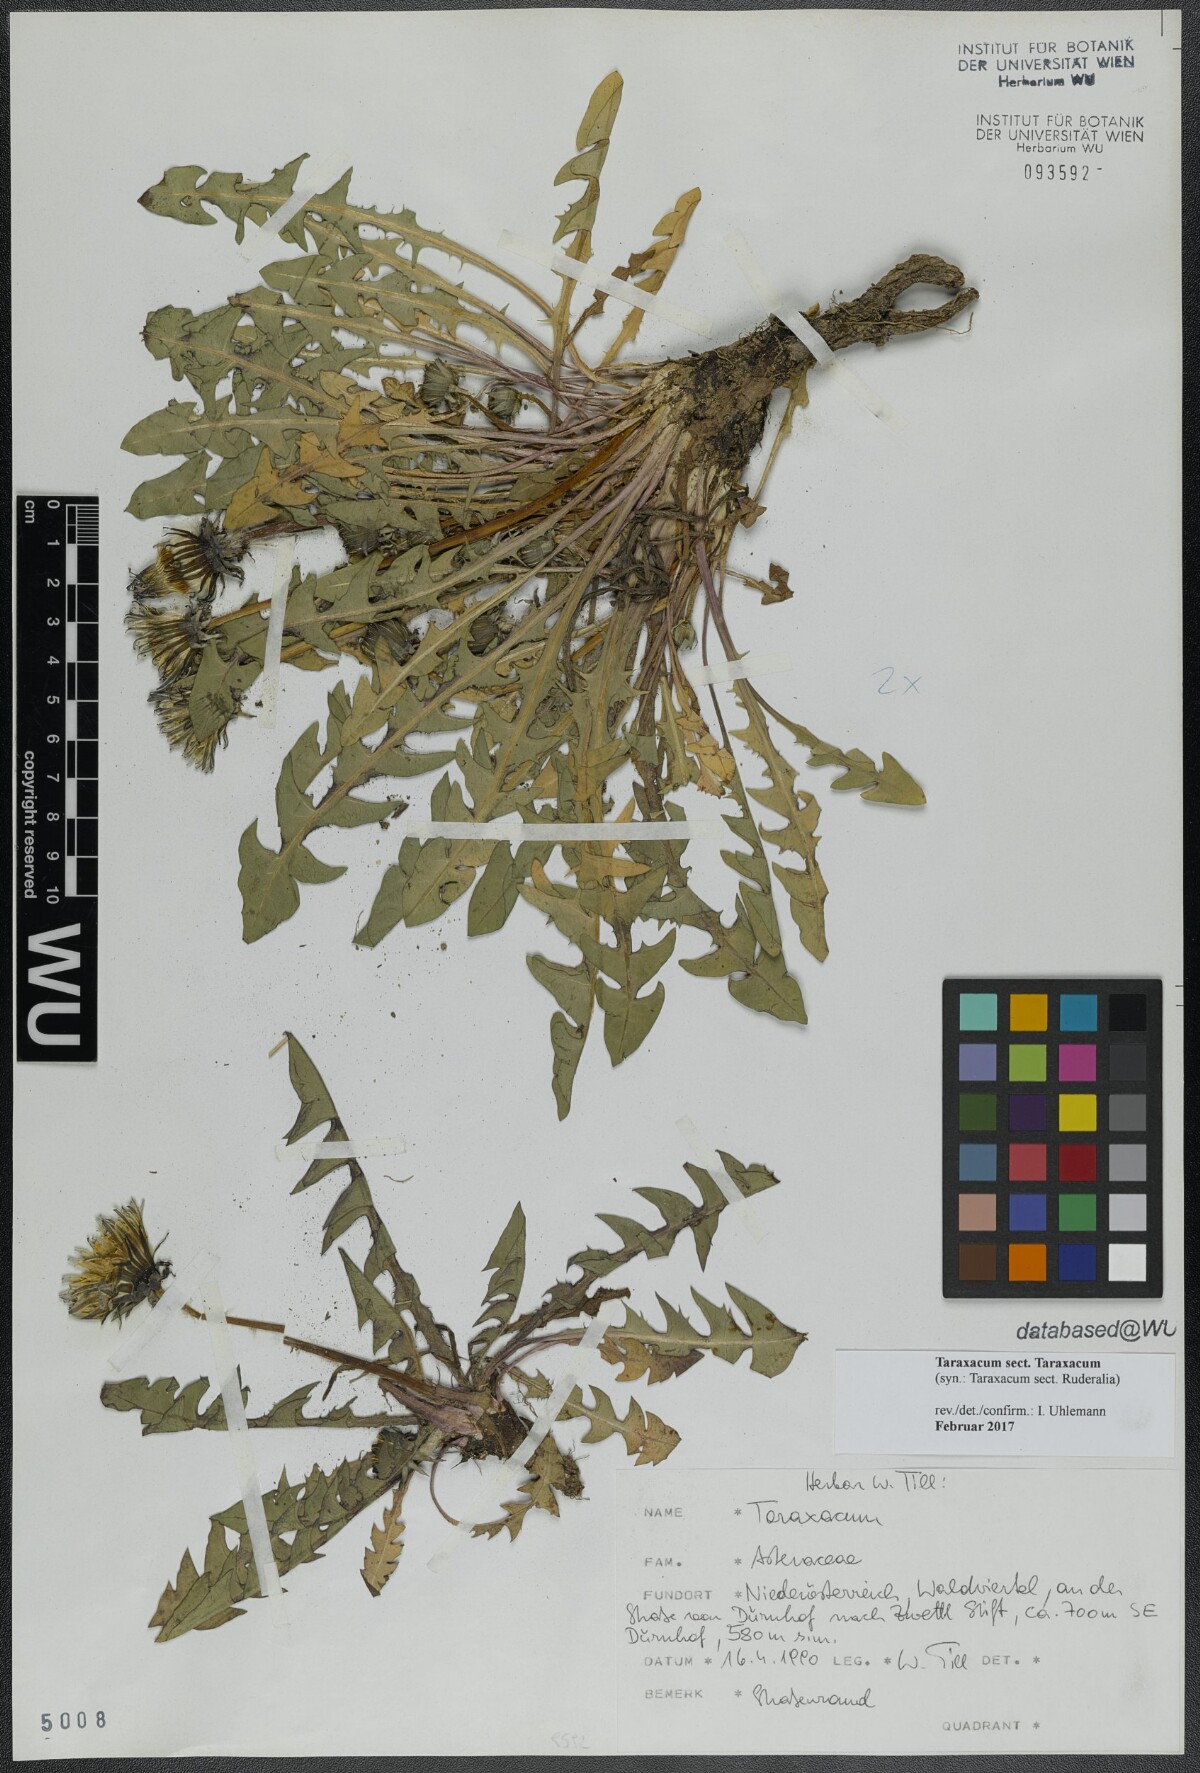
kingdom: Plantae
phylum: Tracheophyta
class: Magnoliopsida
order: Asterales
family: Asteraceae
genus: Taraxacum
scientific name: Taraxacum
